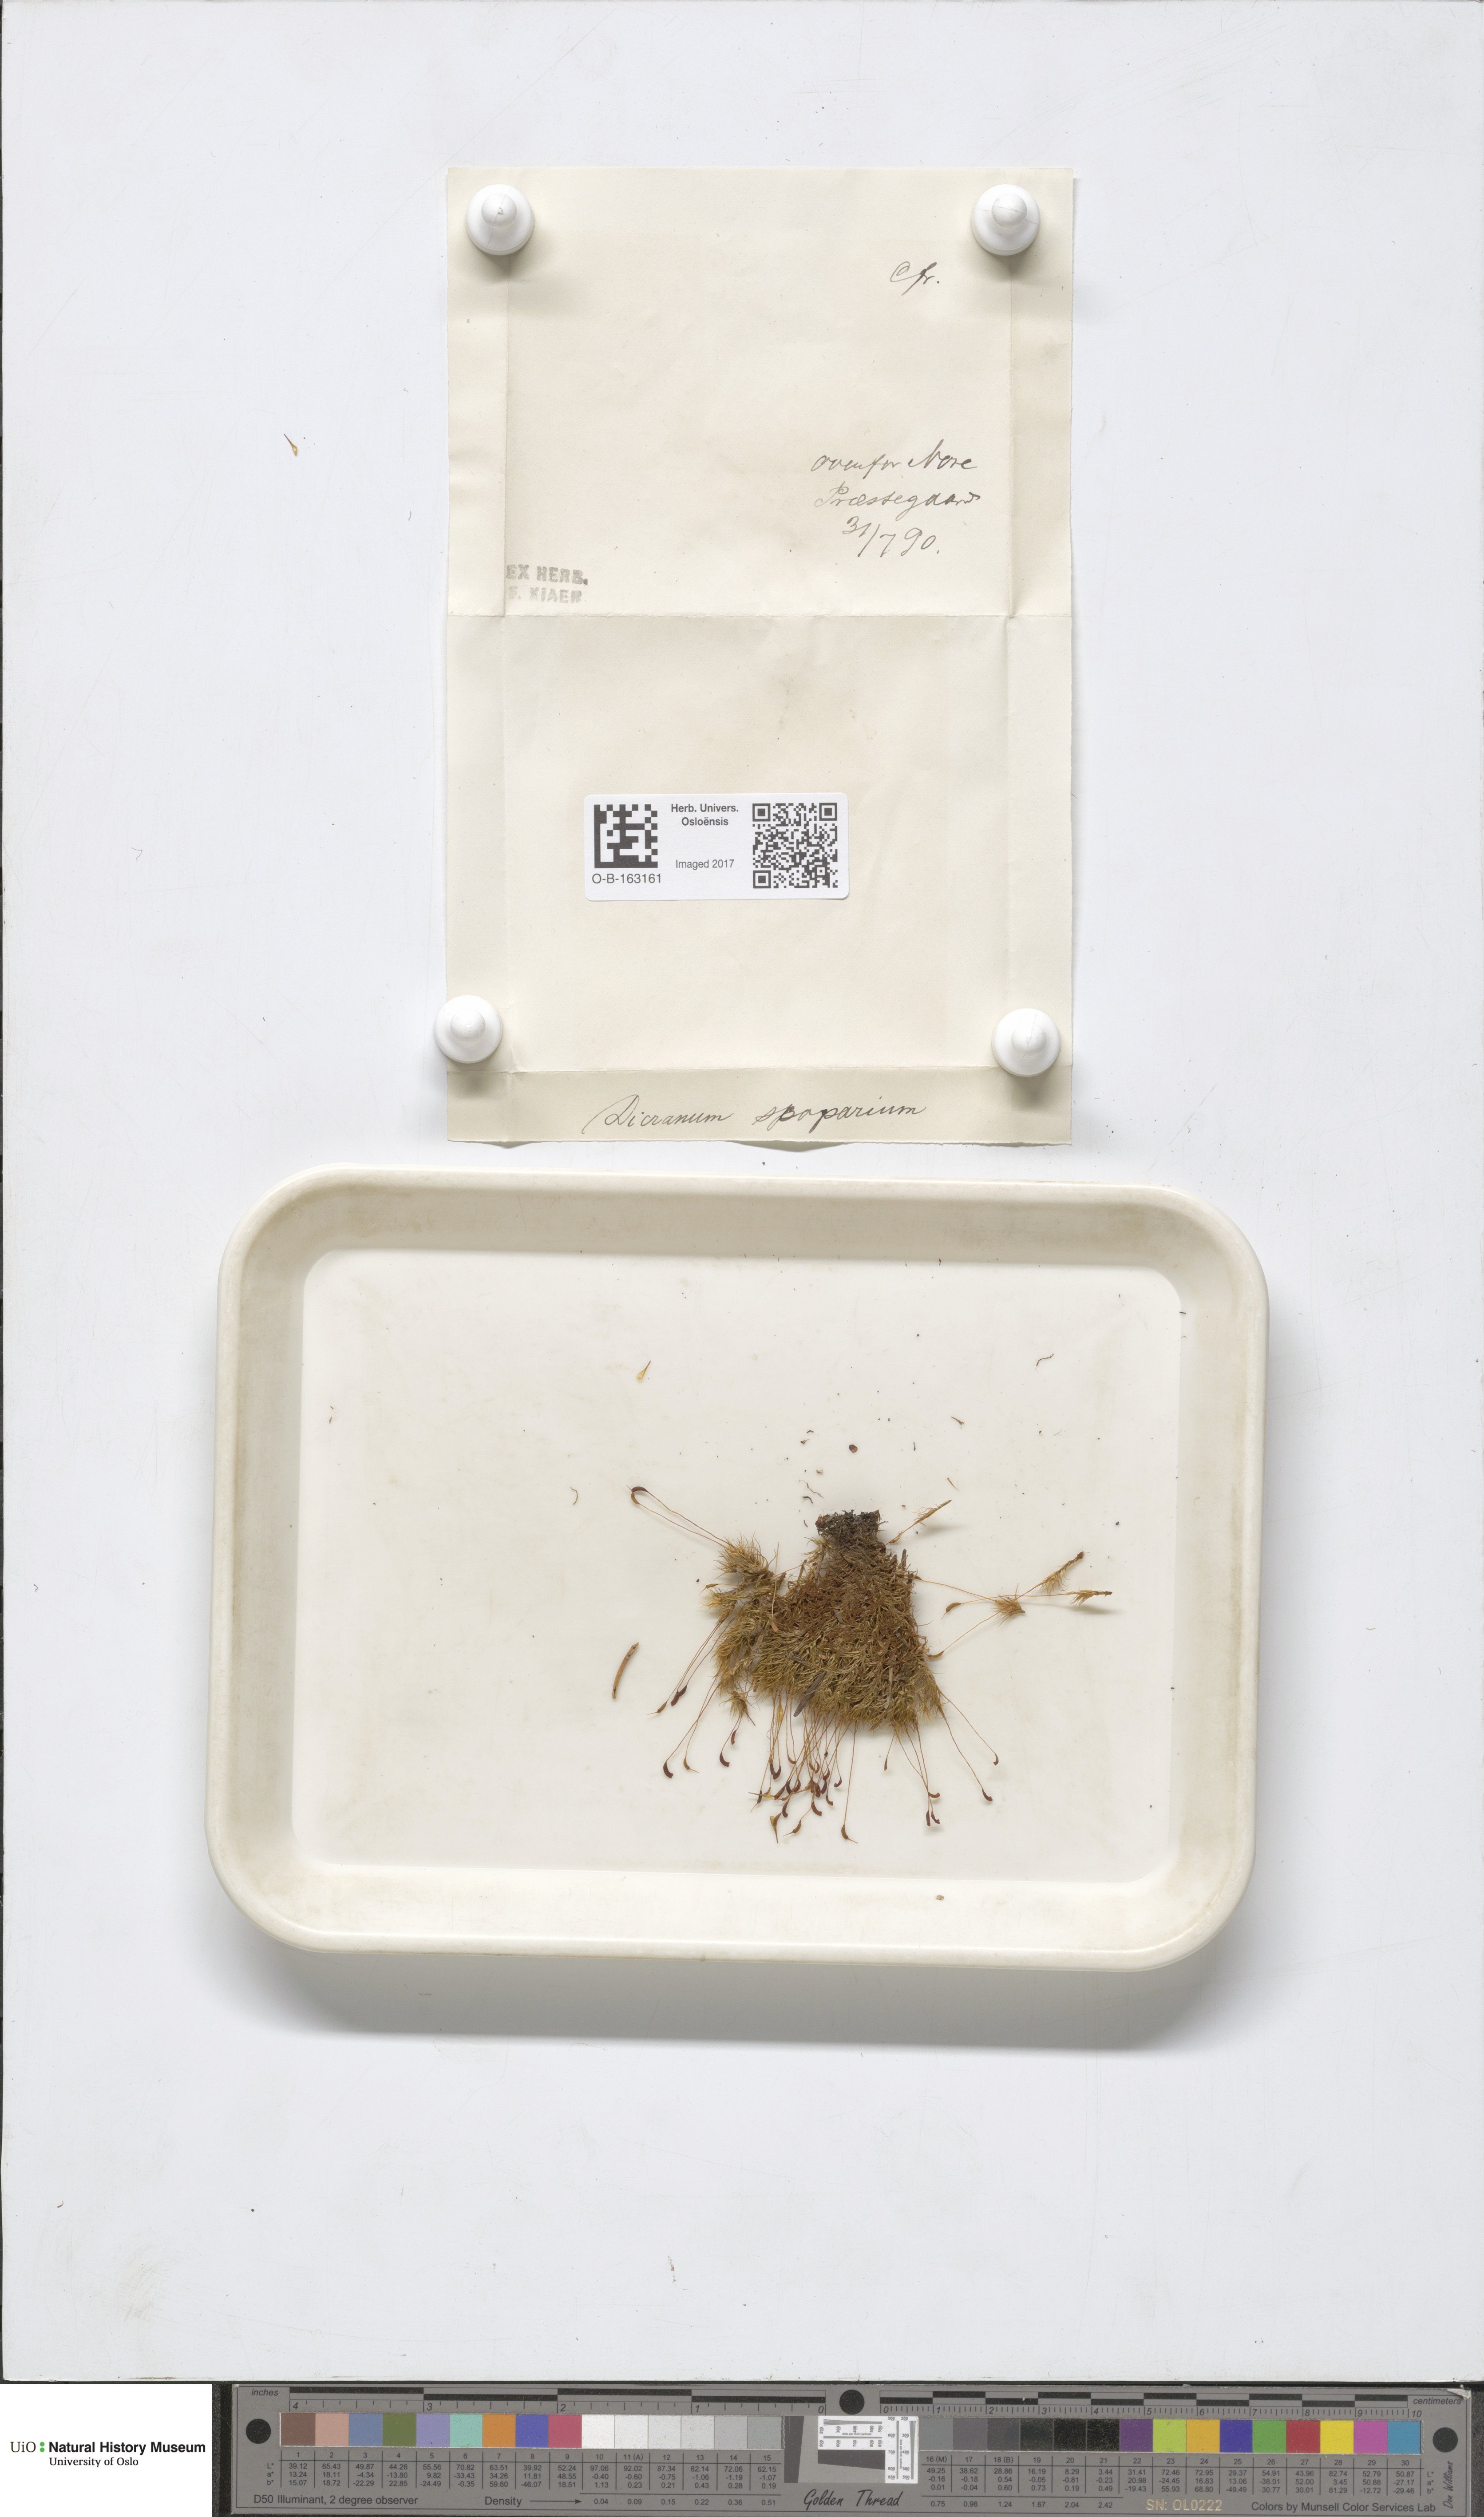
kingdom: Plantae
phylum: Bryophyta
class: Bryopsida
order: Dicranales
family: Dicranaceae
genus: Dicranum
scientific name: Dicranum scoparium
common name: Broom fork-moss
